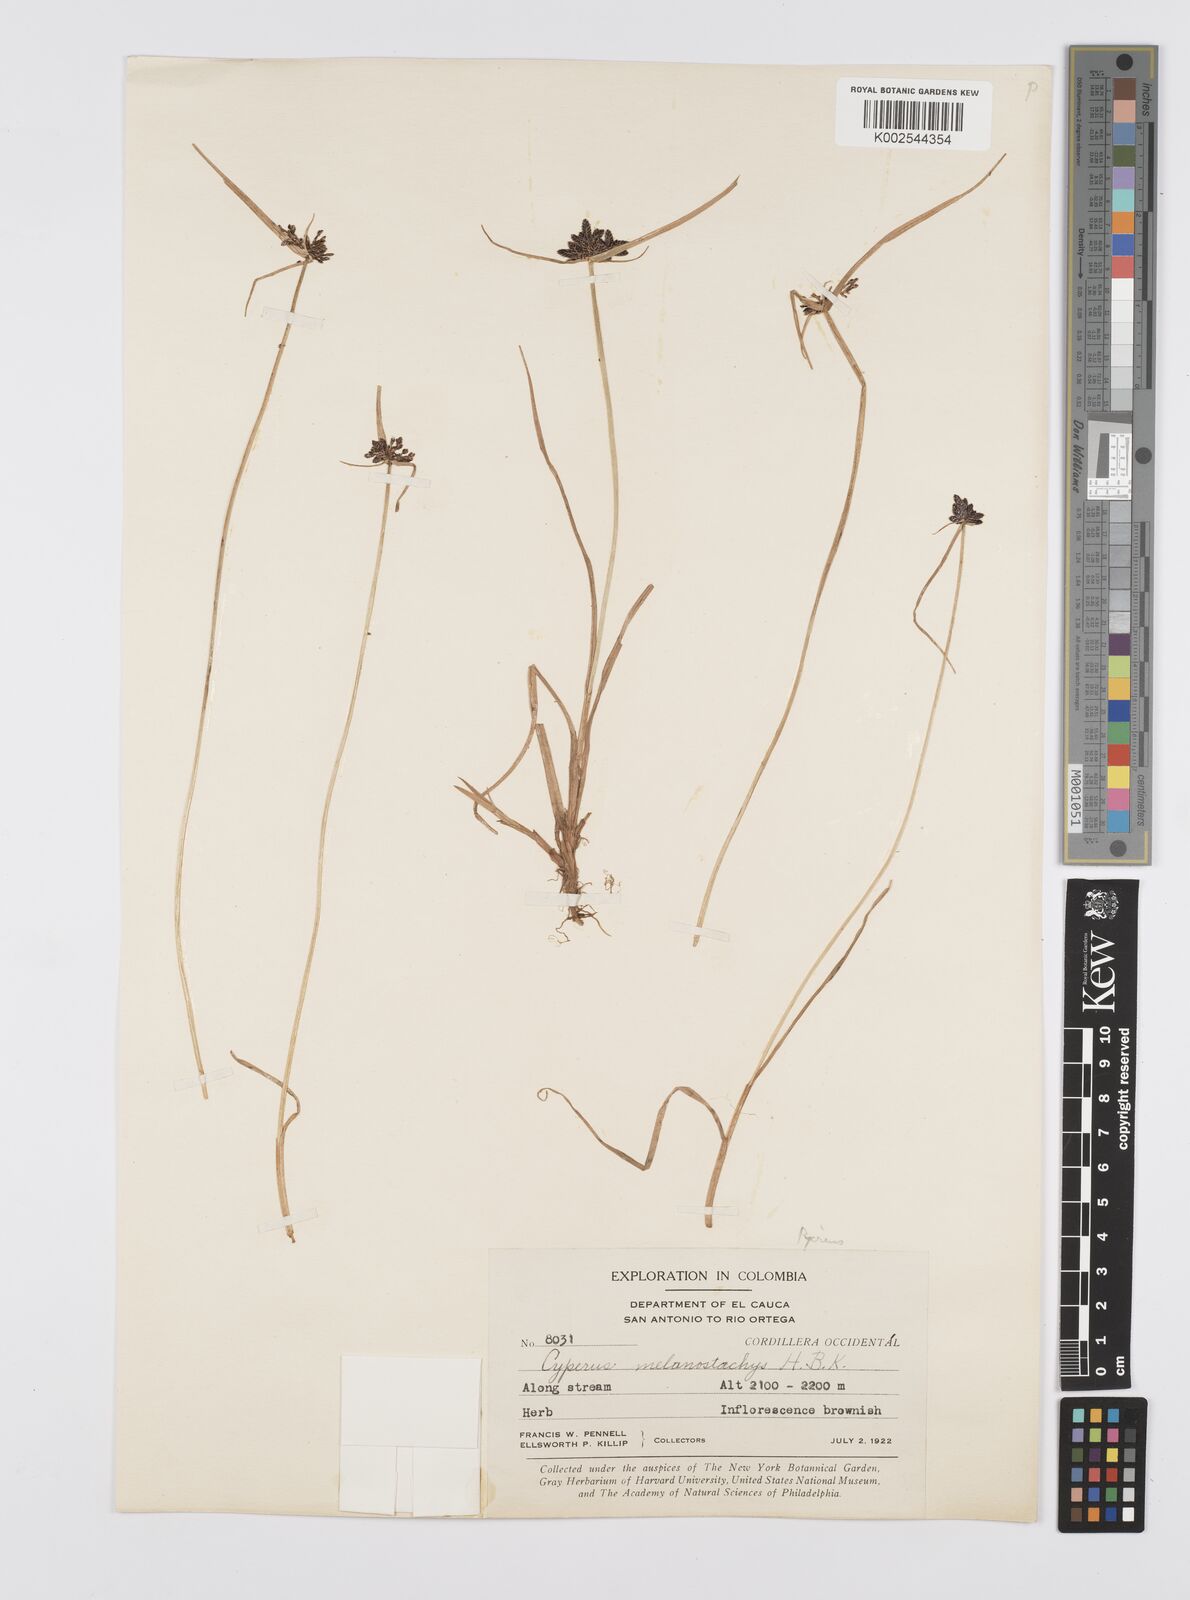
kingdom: Plantae
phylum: Tracheophyta
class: Liliopsida
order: Poales
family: Cyperaceae
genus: Cyperus
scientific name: Cyperus melanostachyus
